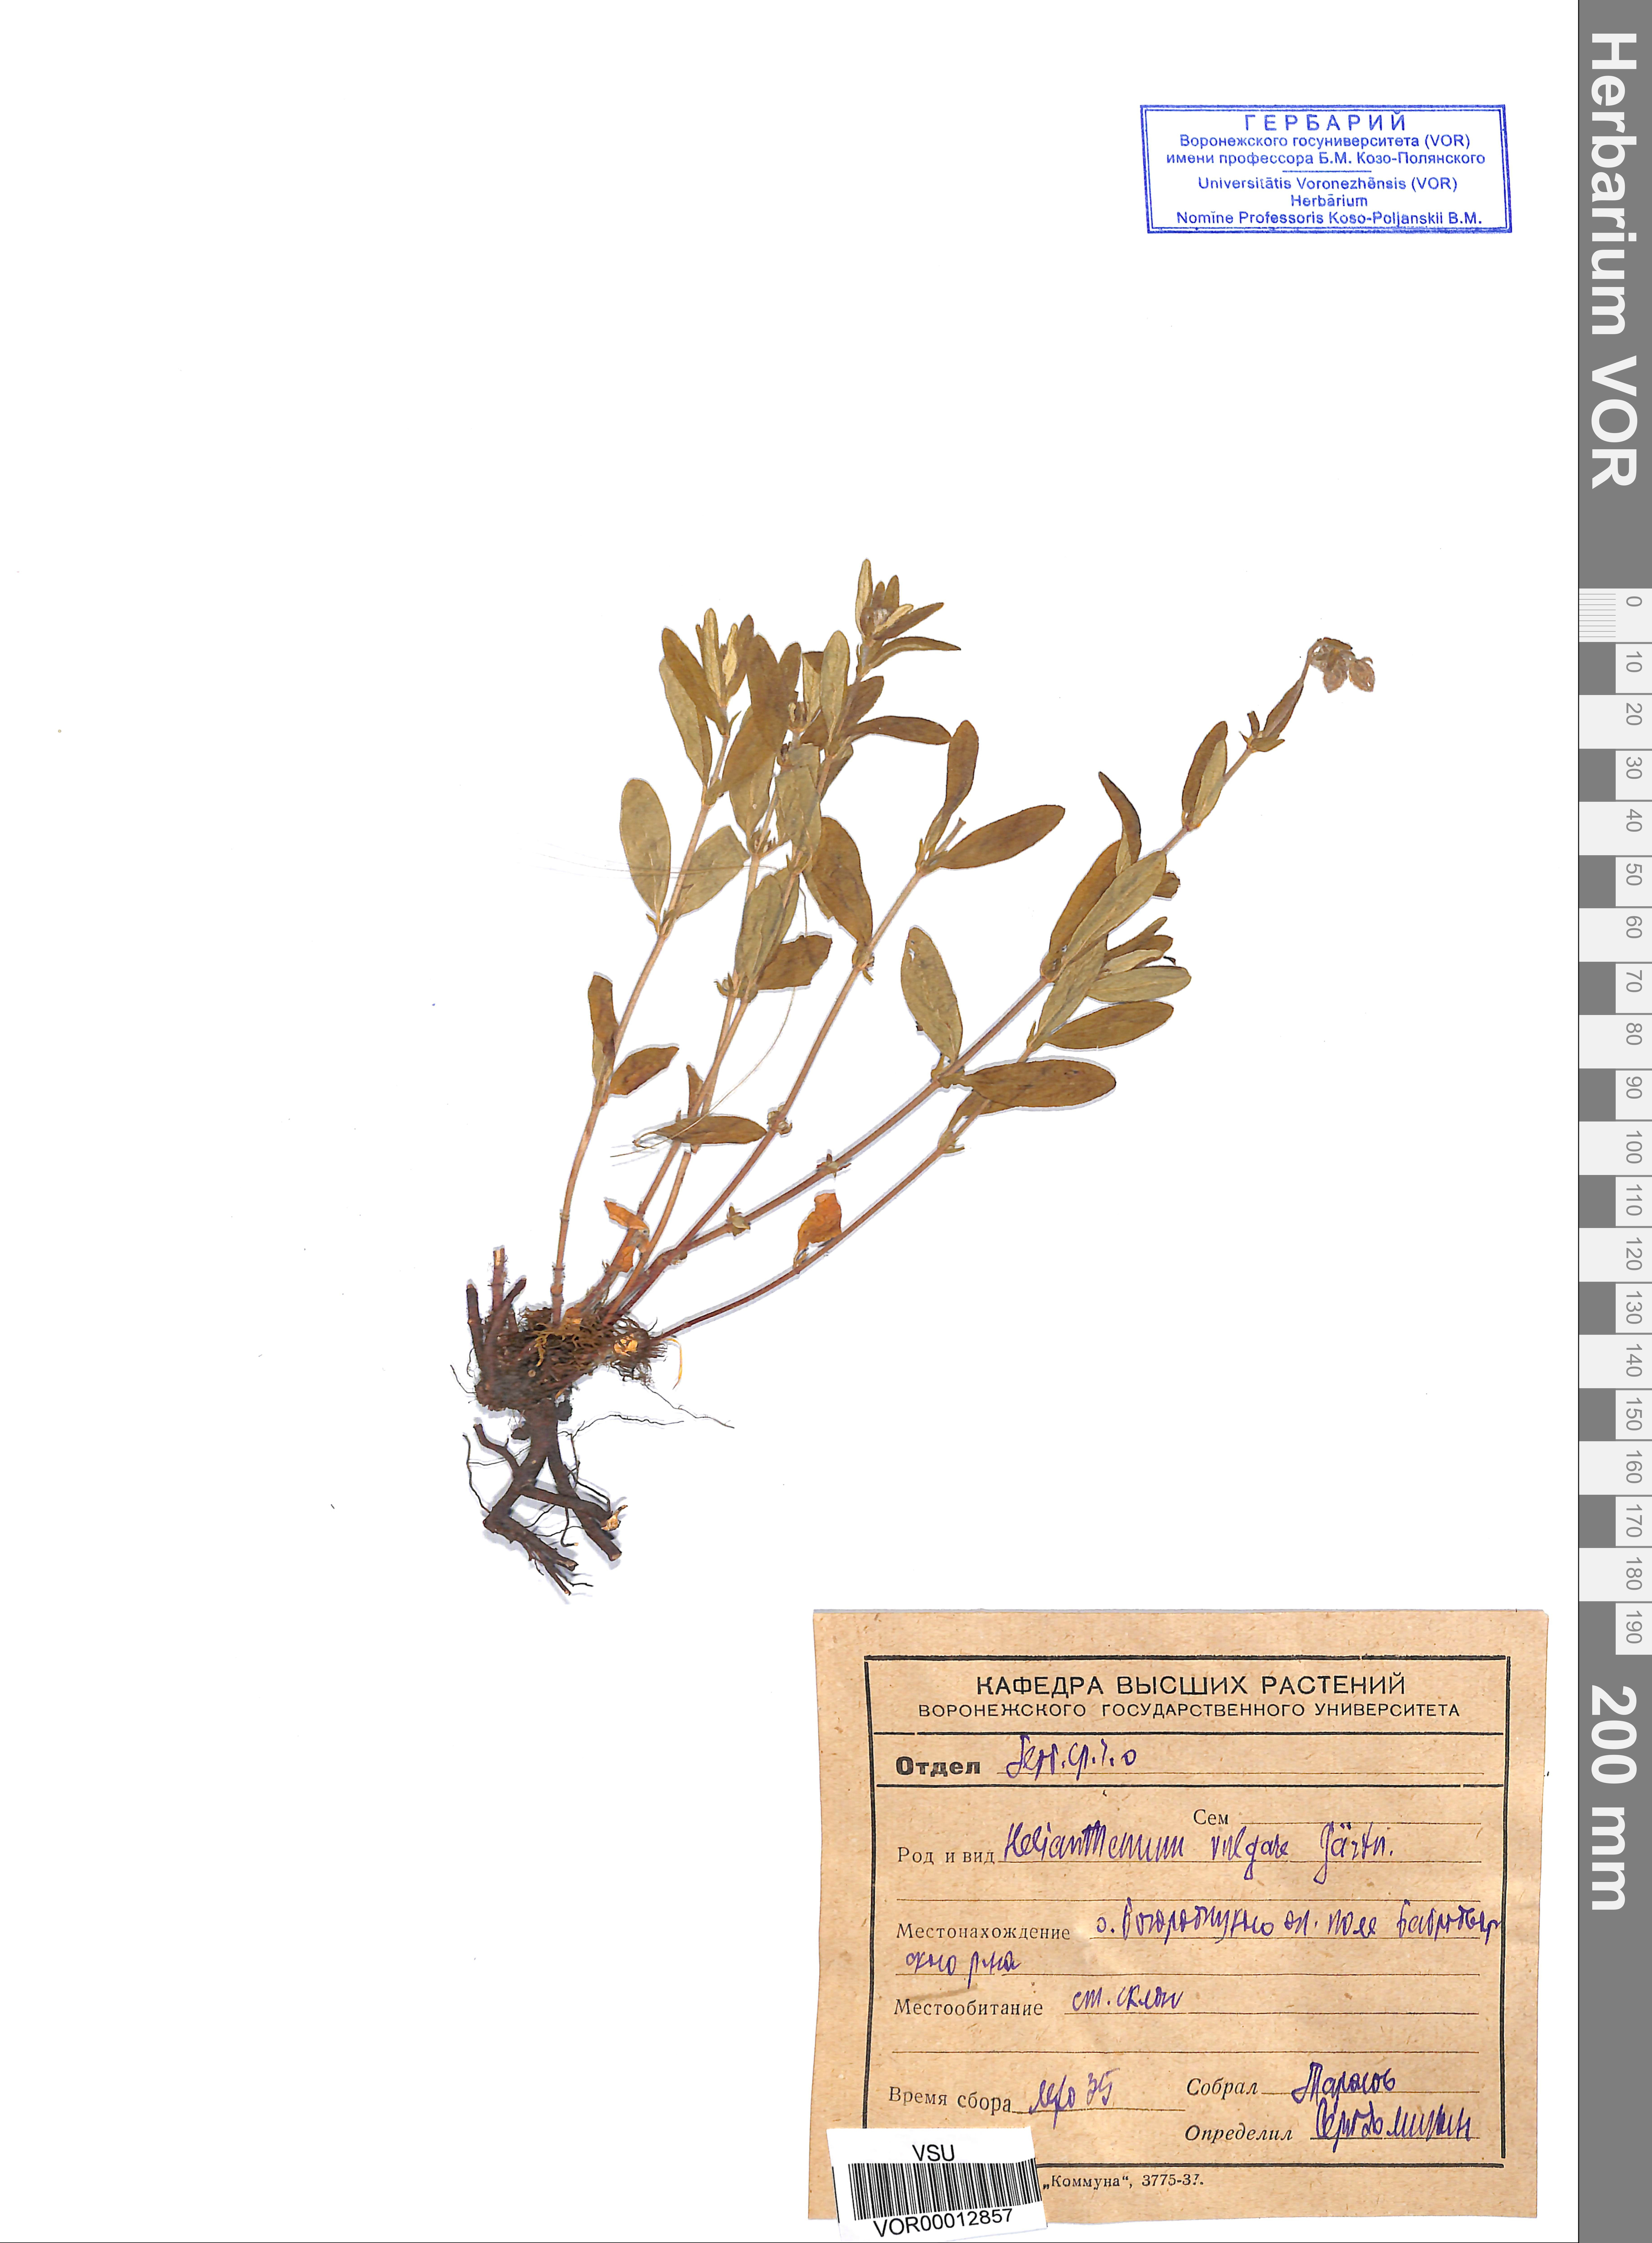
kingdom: Plantae
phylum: Tracheophyta
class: Magnoliopsida
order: Malvales
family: Cistaceae
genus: Helianthemum
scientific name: Helianthemum nummularium
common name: Common rock-rose
